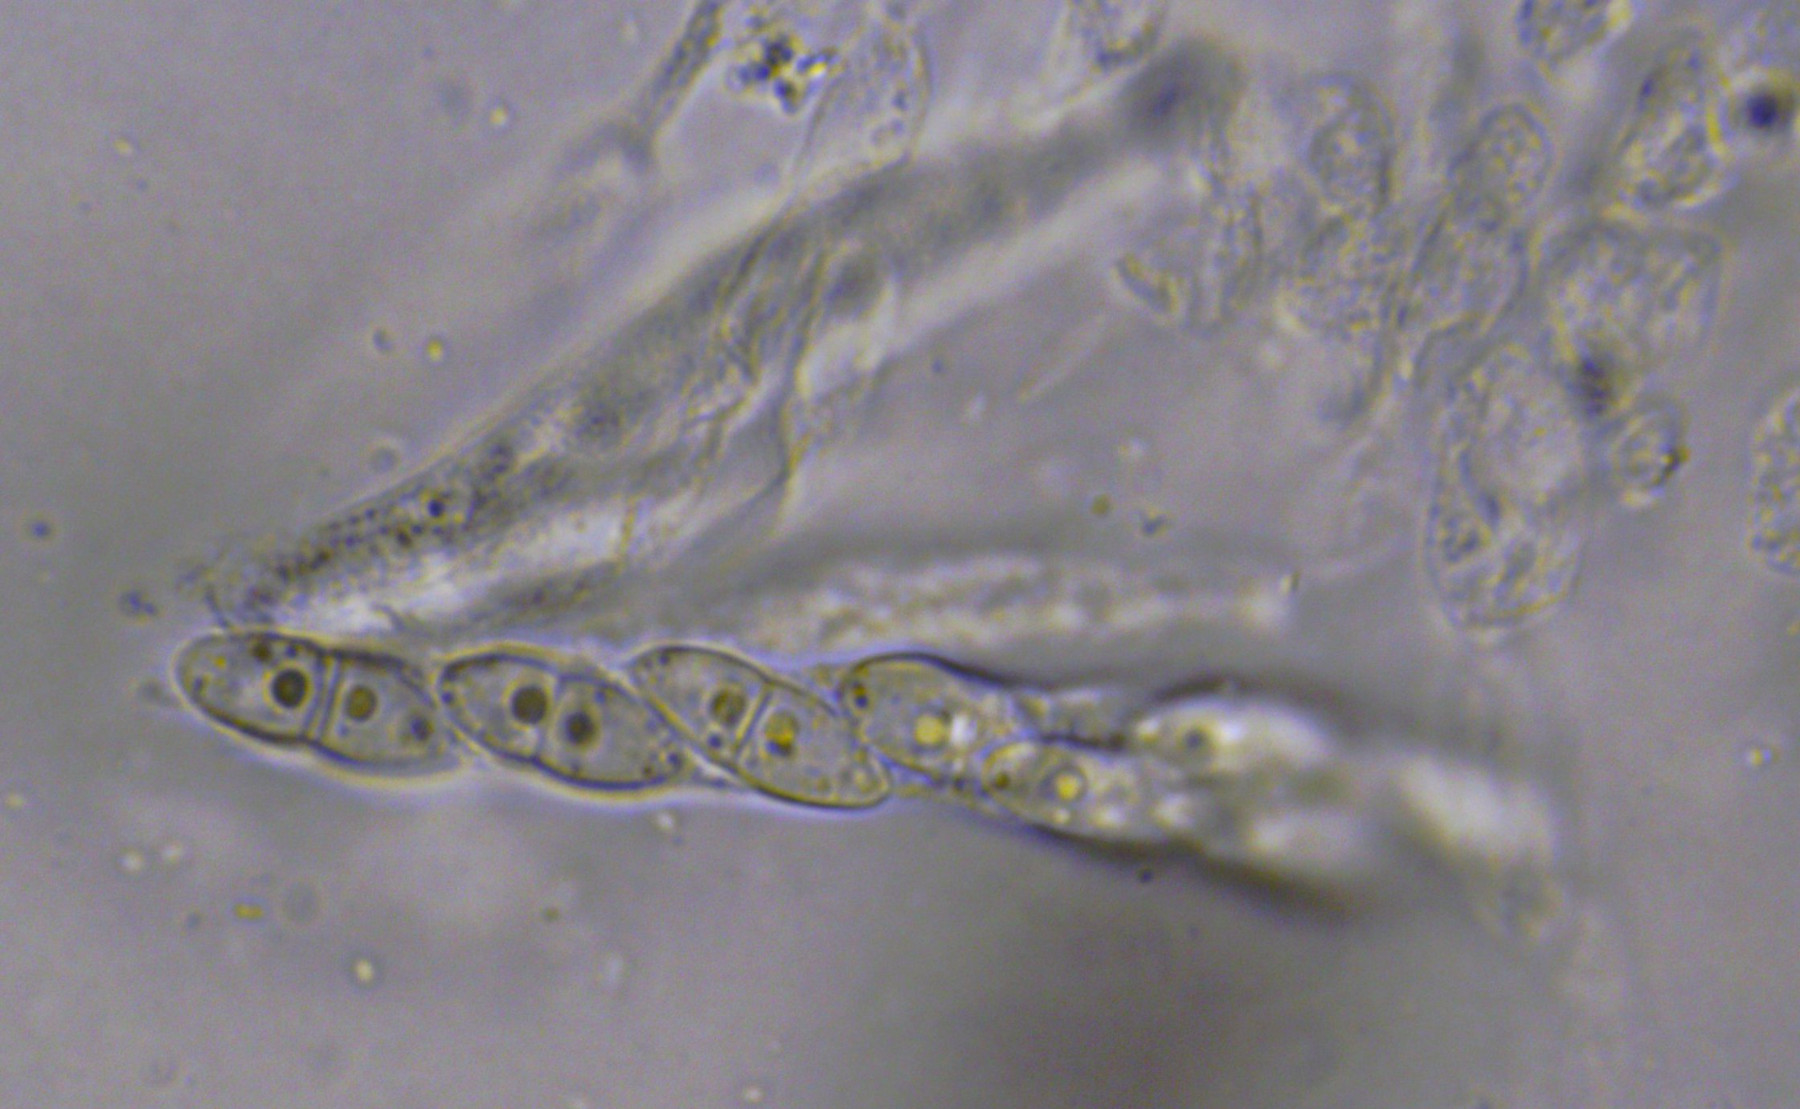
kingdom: Fungi
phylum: Ascomycota
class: Sordariomycetes
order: Hypocreales
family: Nectriaceae
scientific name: Nectriaceae
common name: cinnobersvampfamilien
